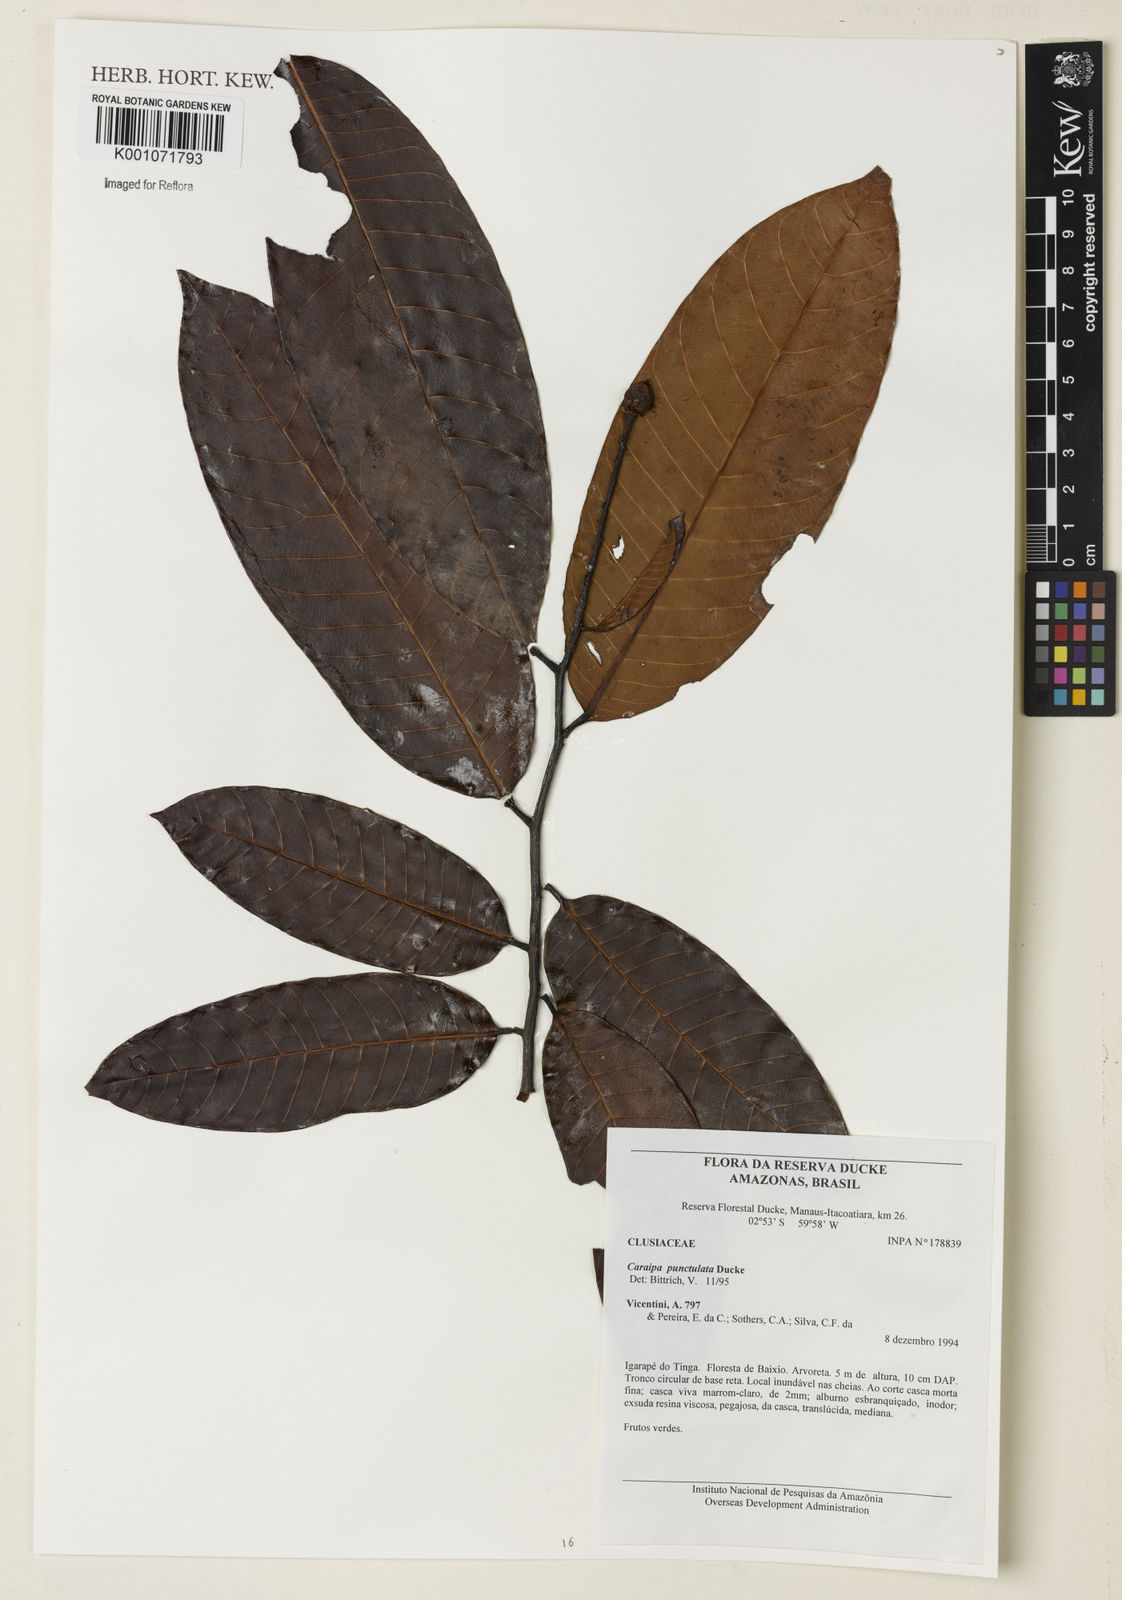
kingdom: Plantae
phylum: Tracheophyta
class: Magnoliopsida
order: Malpighiales
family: Calophyllaceae
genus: Caraipa
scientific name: Caraipa punctulata
